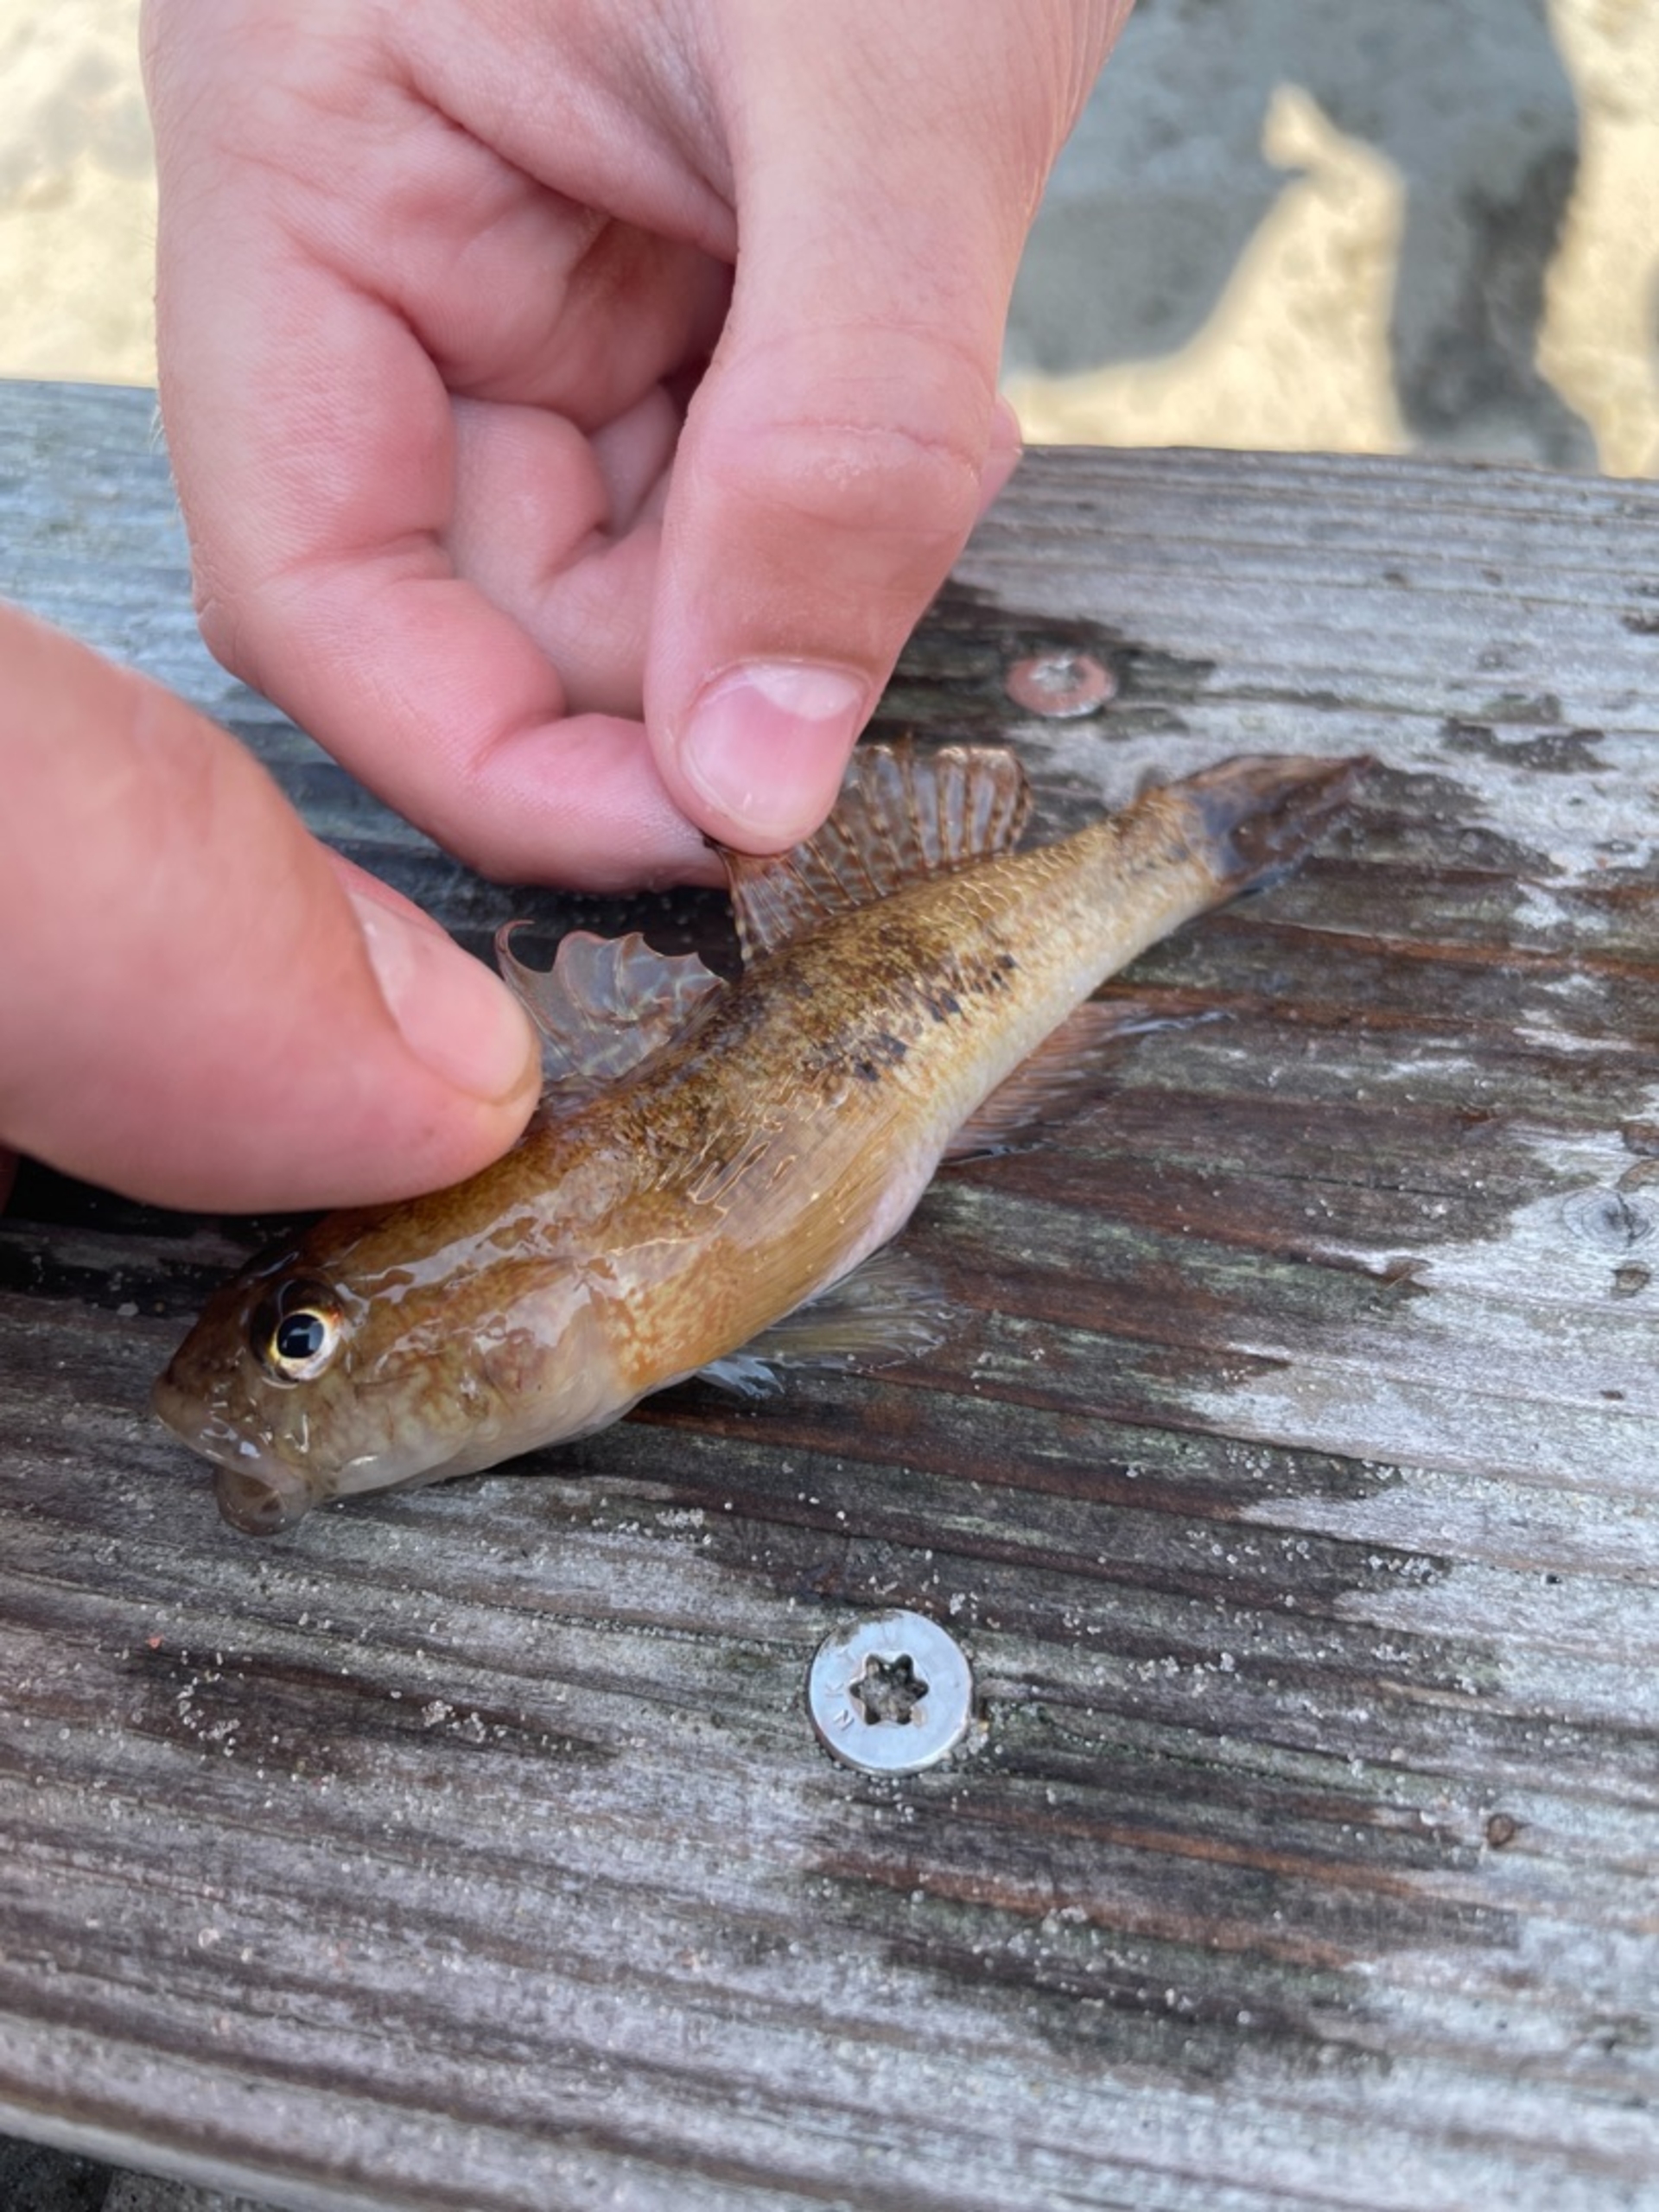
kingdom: Animalia
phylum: Chordata
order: Perciformes
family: Gobiidae
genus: Gobius
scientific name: Gobius niger
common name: Sortkutling
